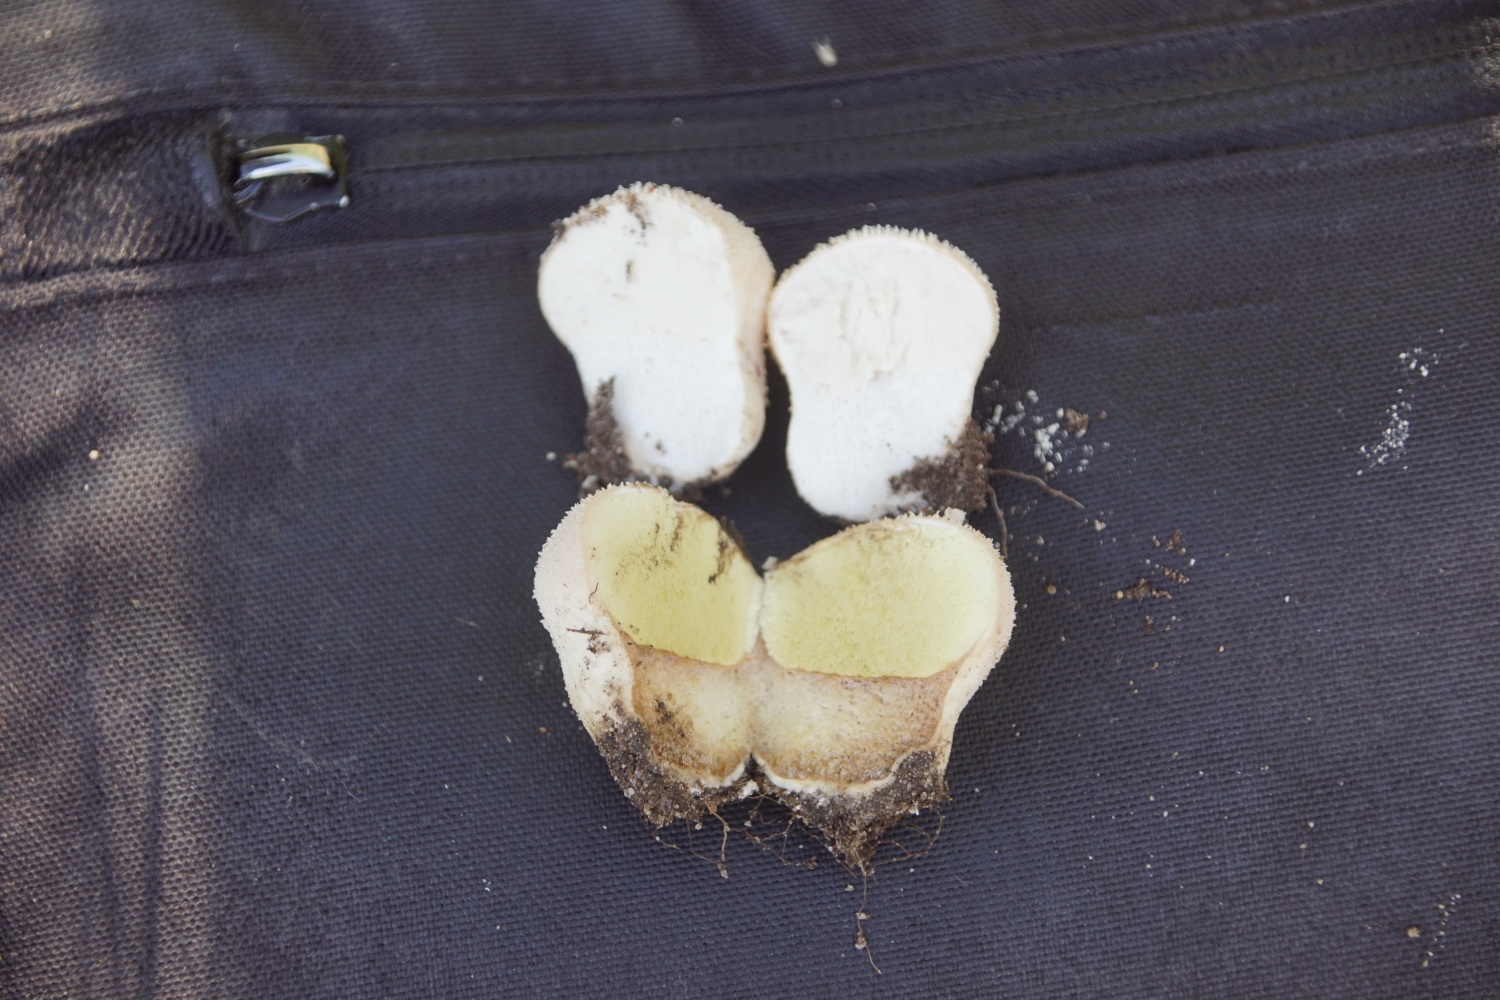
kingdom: Fungi
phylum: Basidiomycota
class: Agaricomycetes
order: Agaricales
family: Lycoperdaceae
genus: Lycoperdon
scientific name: Lycoperdon pratense
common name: flad støvbold
